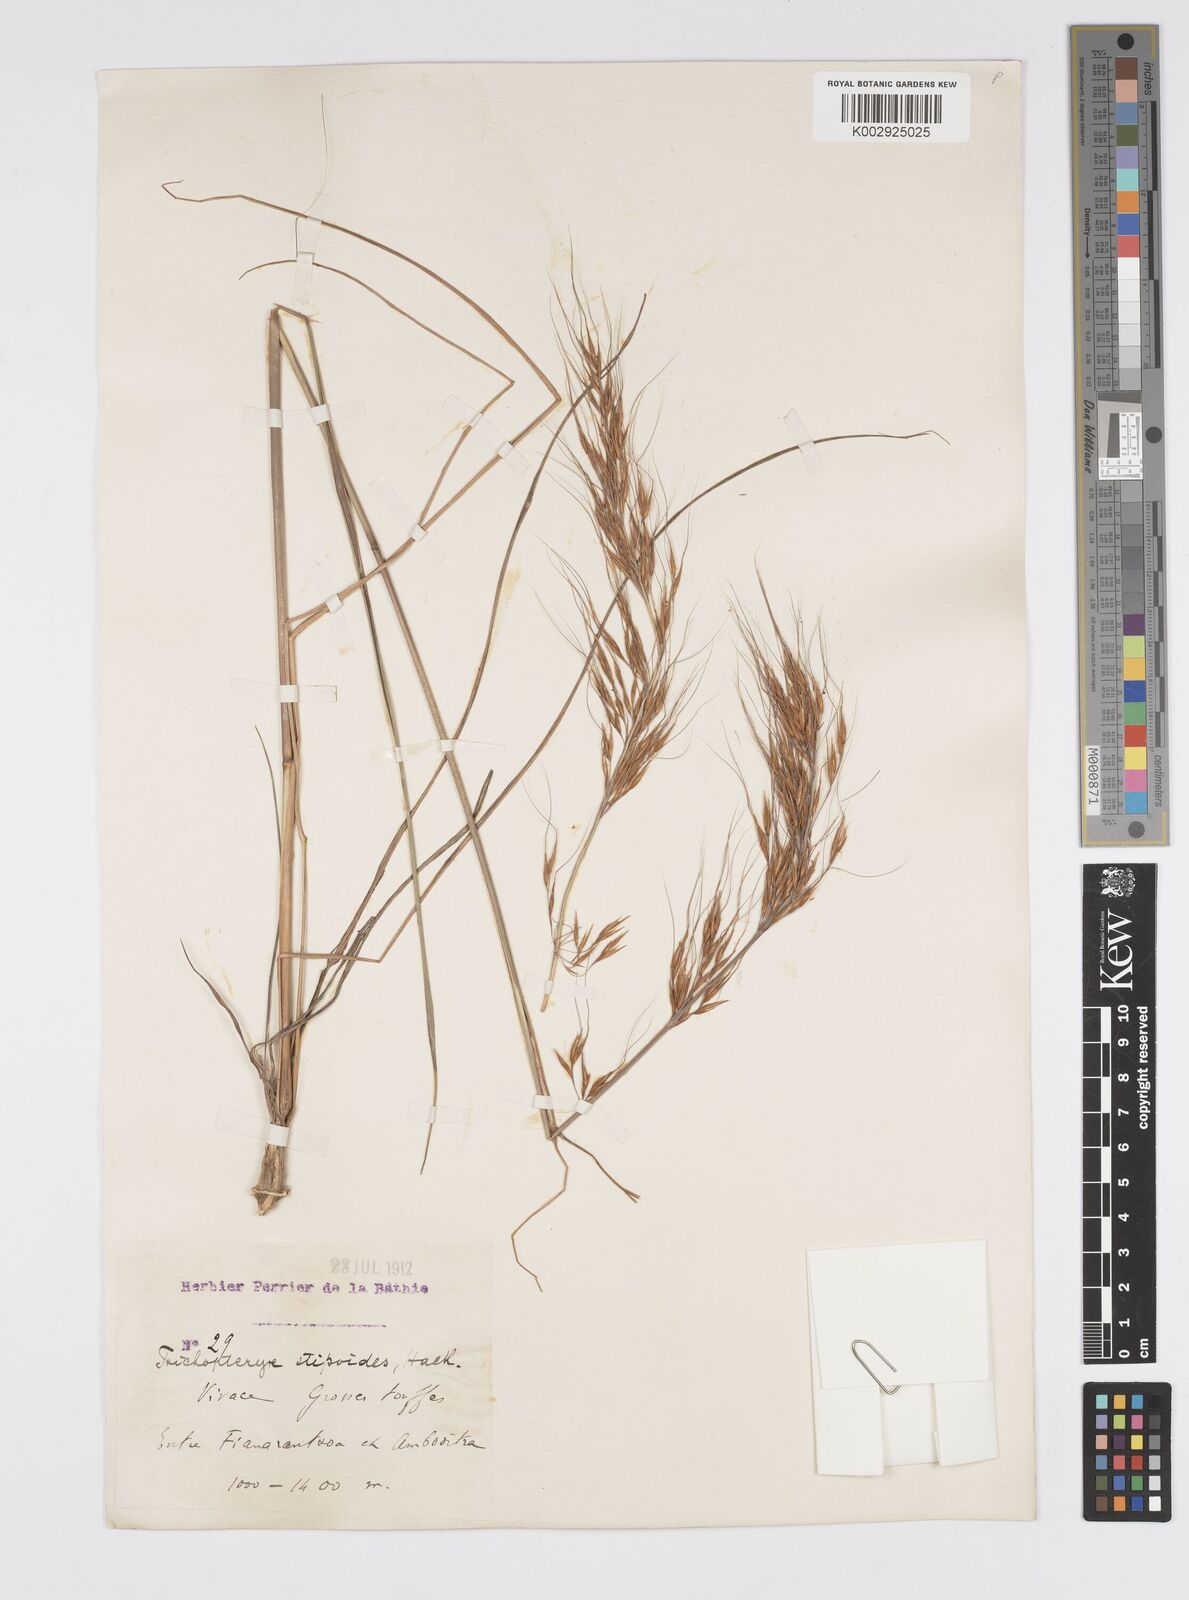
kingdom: Plantae
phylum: Tracheophyta
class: Liliopsida
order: Poales
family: Poaceae
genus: Loudetia
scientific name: Loudetia
